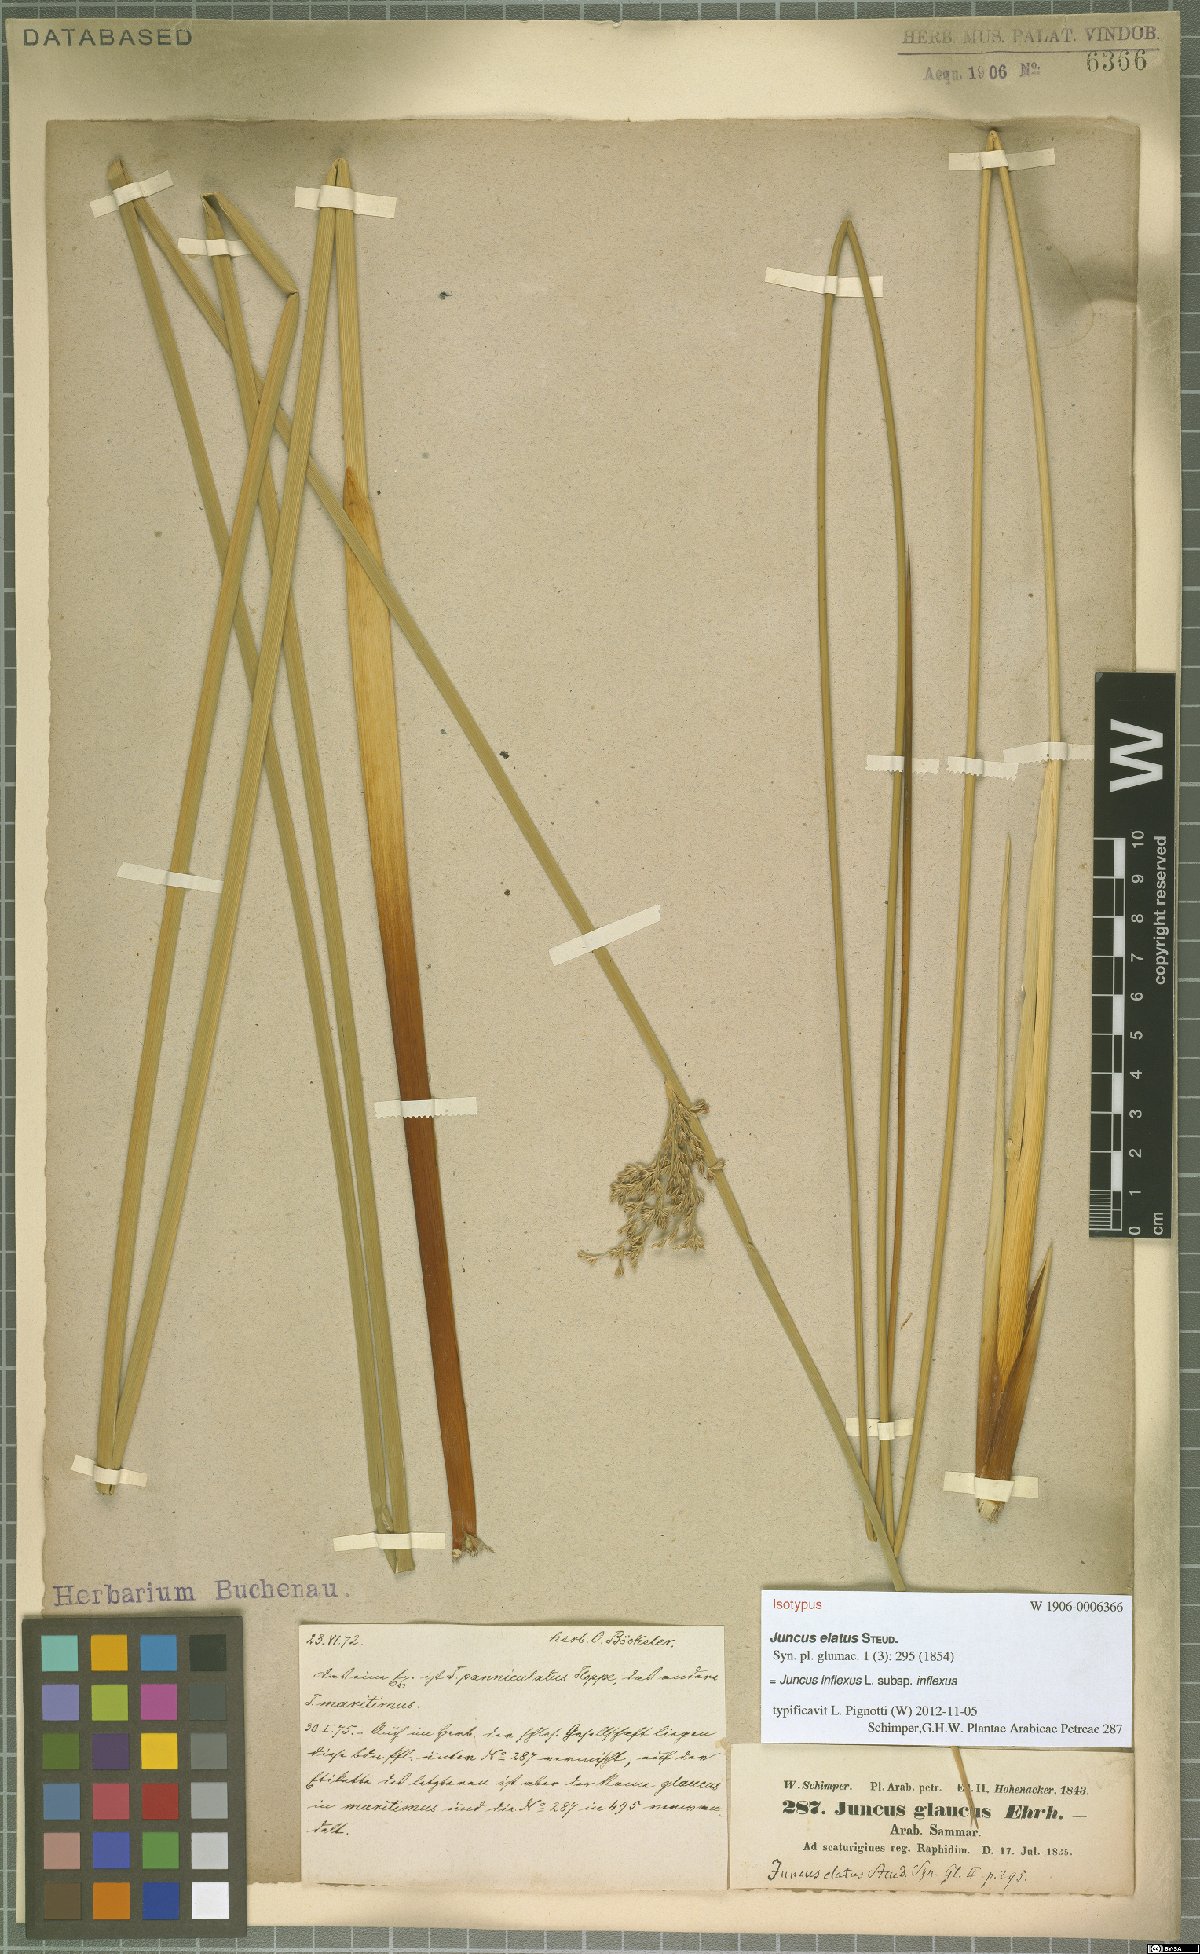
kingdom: Plantae
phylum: Tracheophyta
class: Liliopsida
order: Poales
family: Juncaceae
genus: Juncus
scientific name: Juncus inflexus
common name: Hard rush
